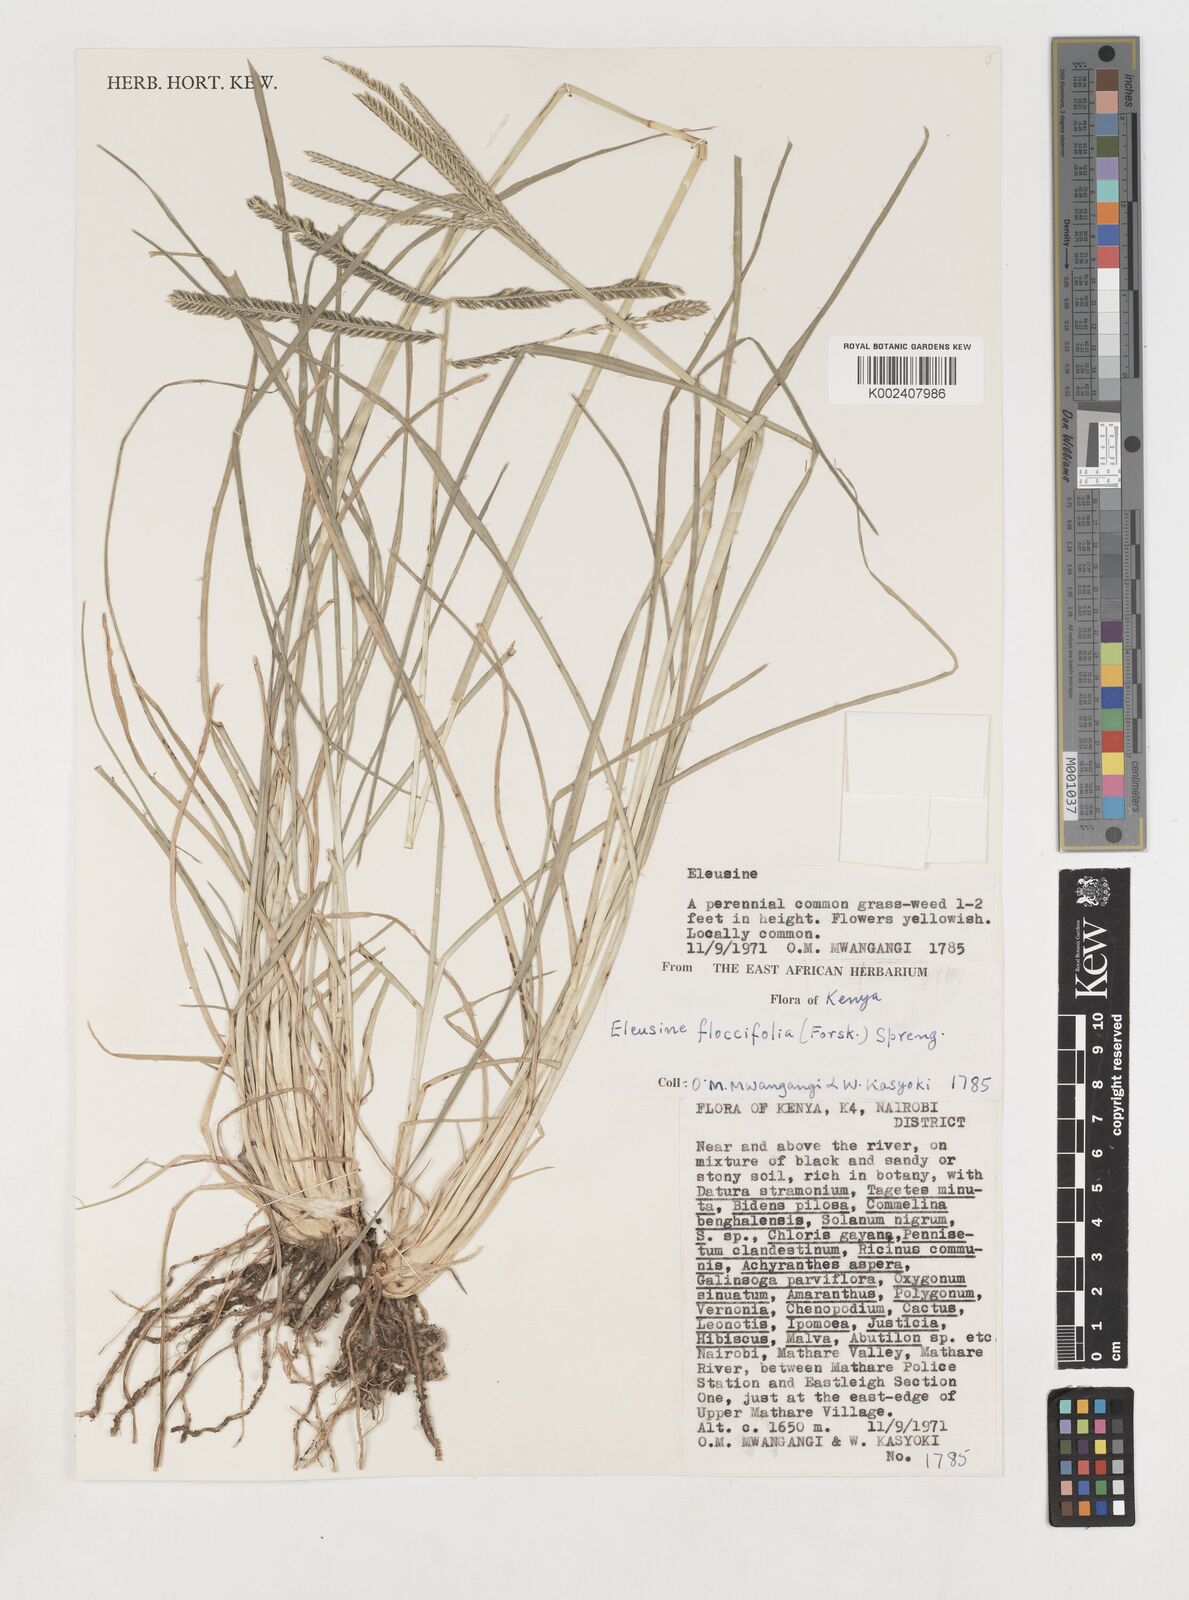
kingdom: Plantae
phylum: Tracheophyta
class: Liliopsida
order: Poales
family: Poaceae
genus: Eleusine
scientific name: Eleusine floccifolia
